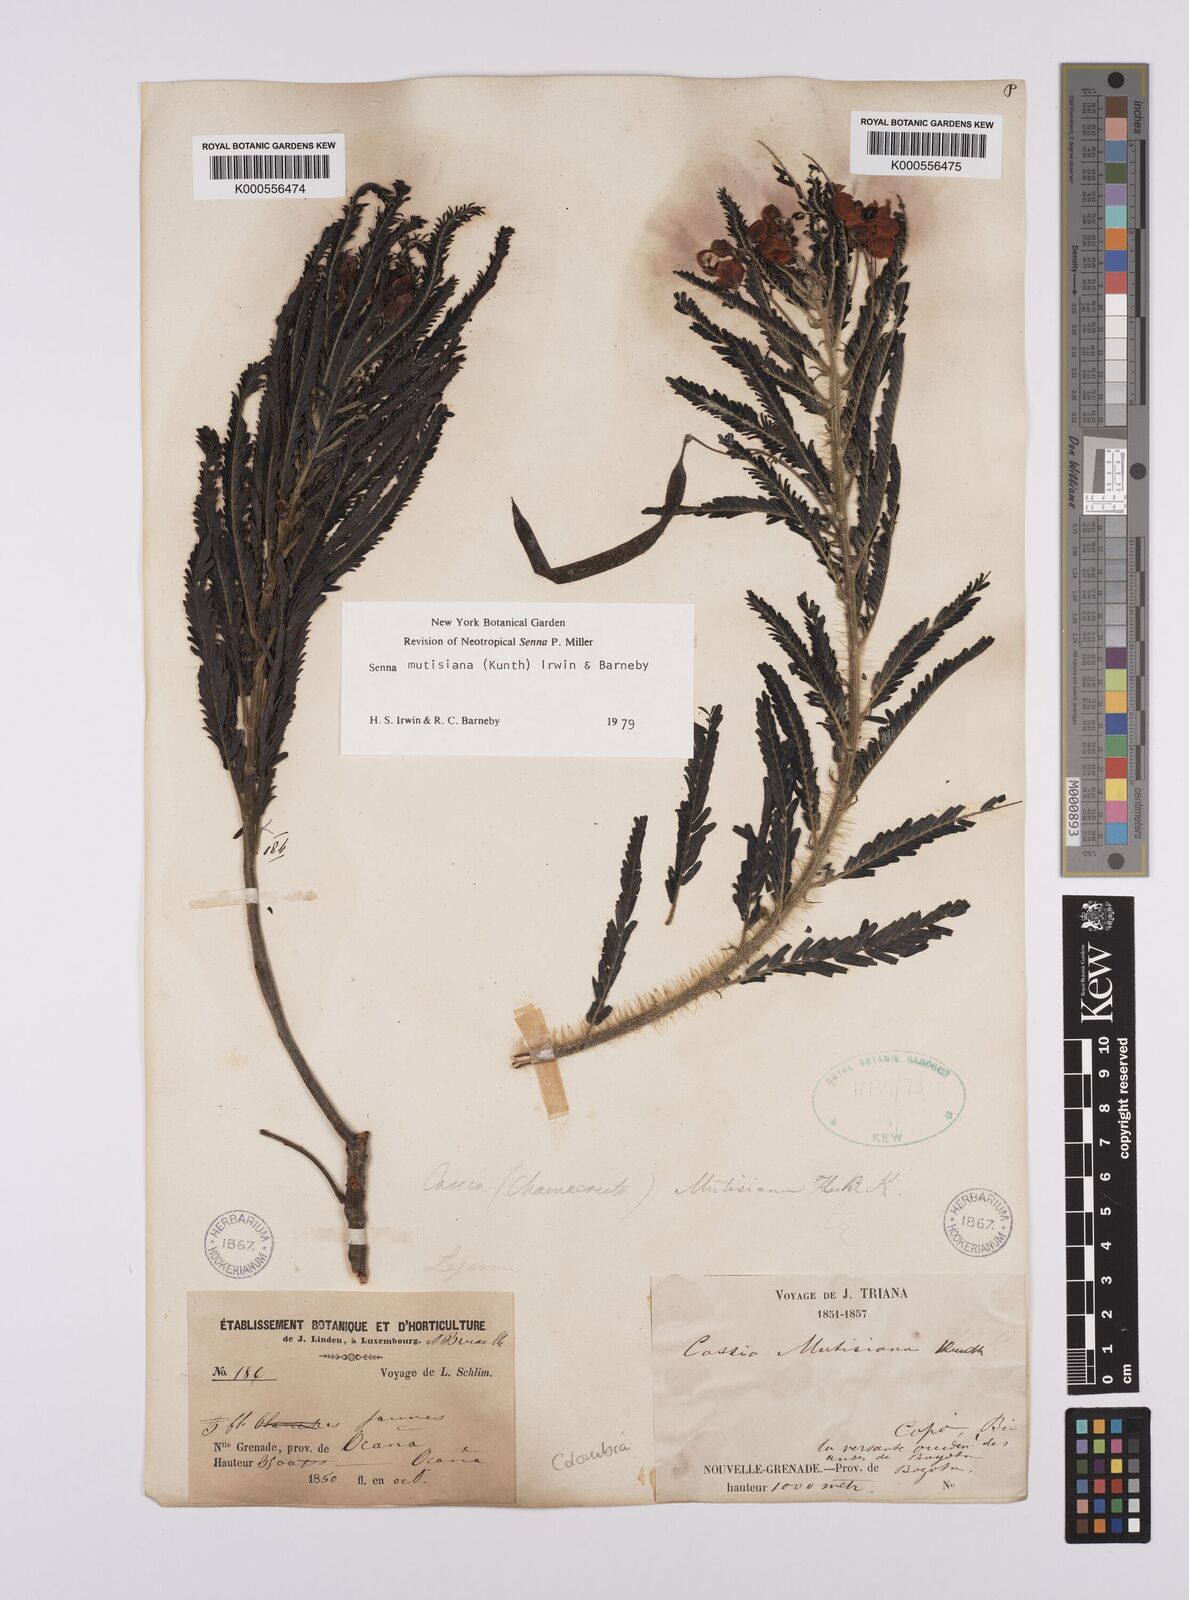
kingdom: Plantae
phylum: Tracheophyta
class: Magnoliopsida
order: Fabales
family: Fabaceae
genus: Senna
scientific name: Senna mutisiana
